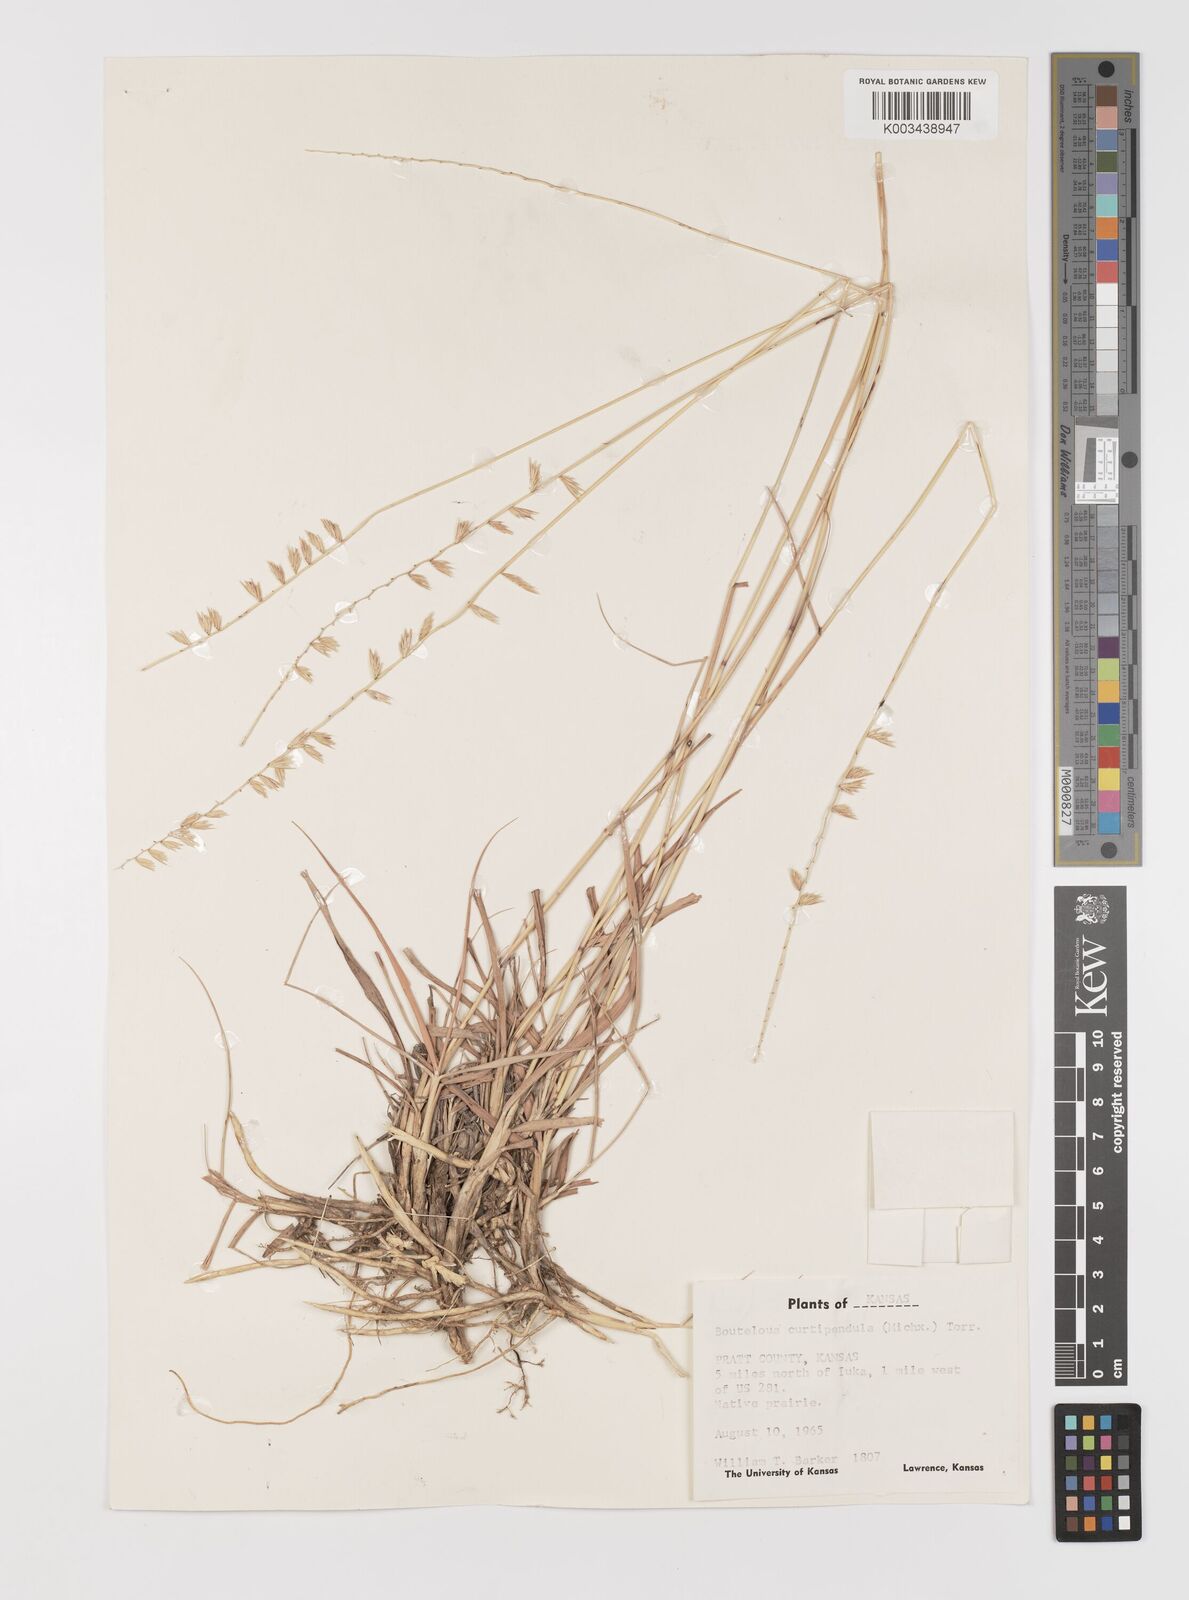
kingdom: Plantae
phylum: Tracheophyta
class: Liliopsida
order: Poales
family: Poaceae
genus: Bouteloua
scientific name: Bouteloua curtipendula
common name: Side-oats grama
